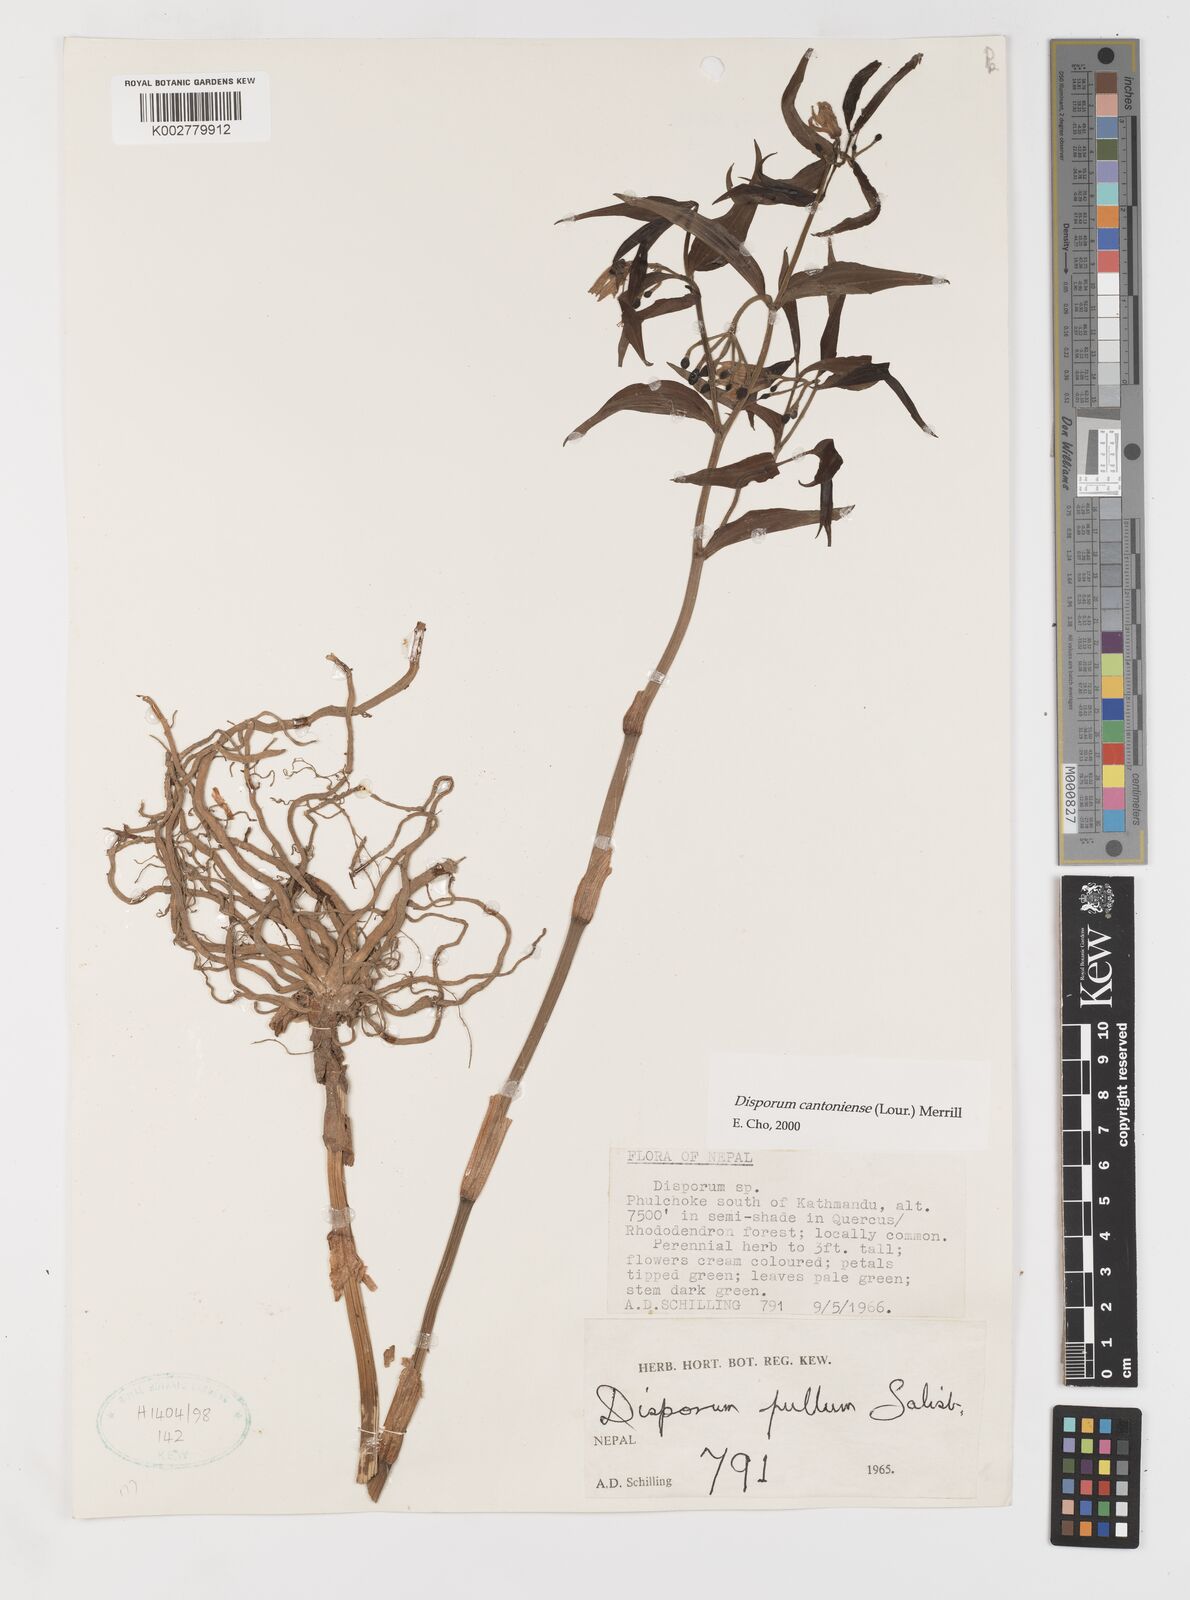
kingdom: Plantae
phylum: Tracheophyta
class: Liliopsida
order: Liliales
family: Colchicaceae
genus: Disporum
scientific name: Disporum cantoniense
